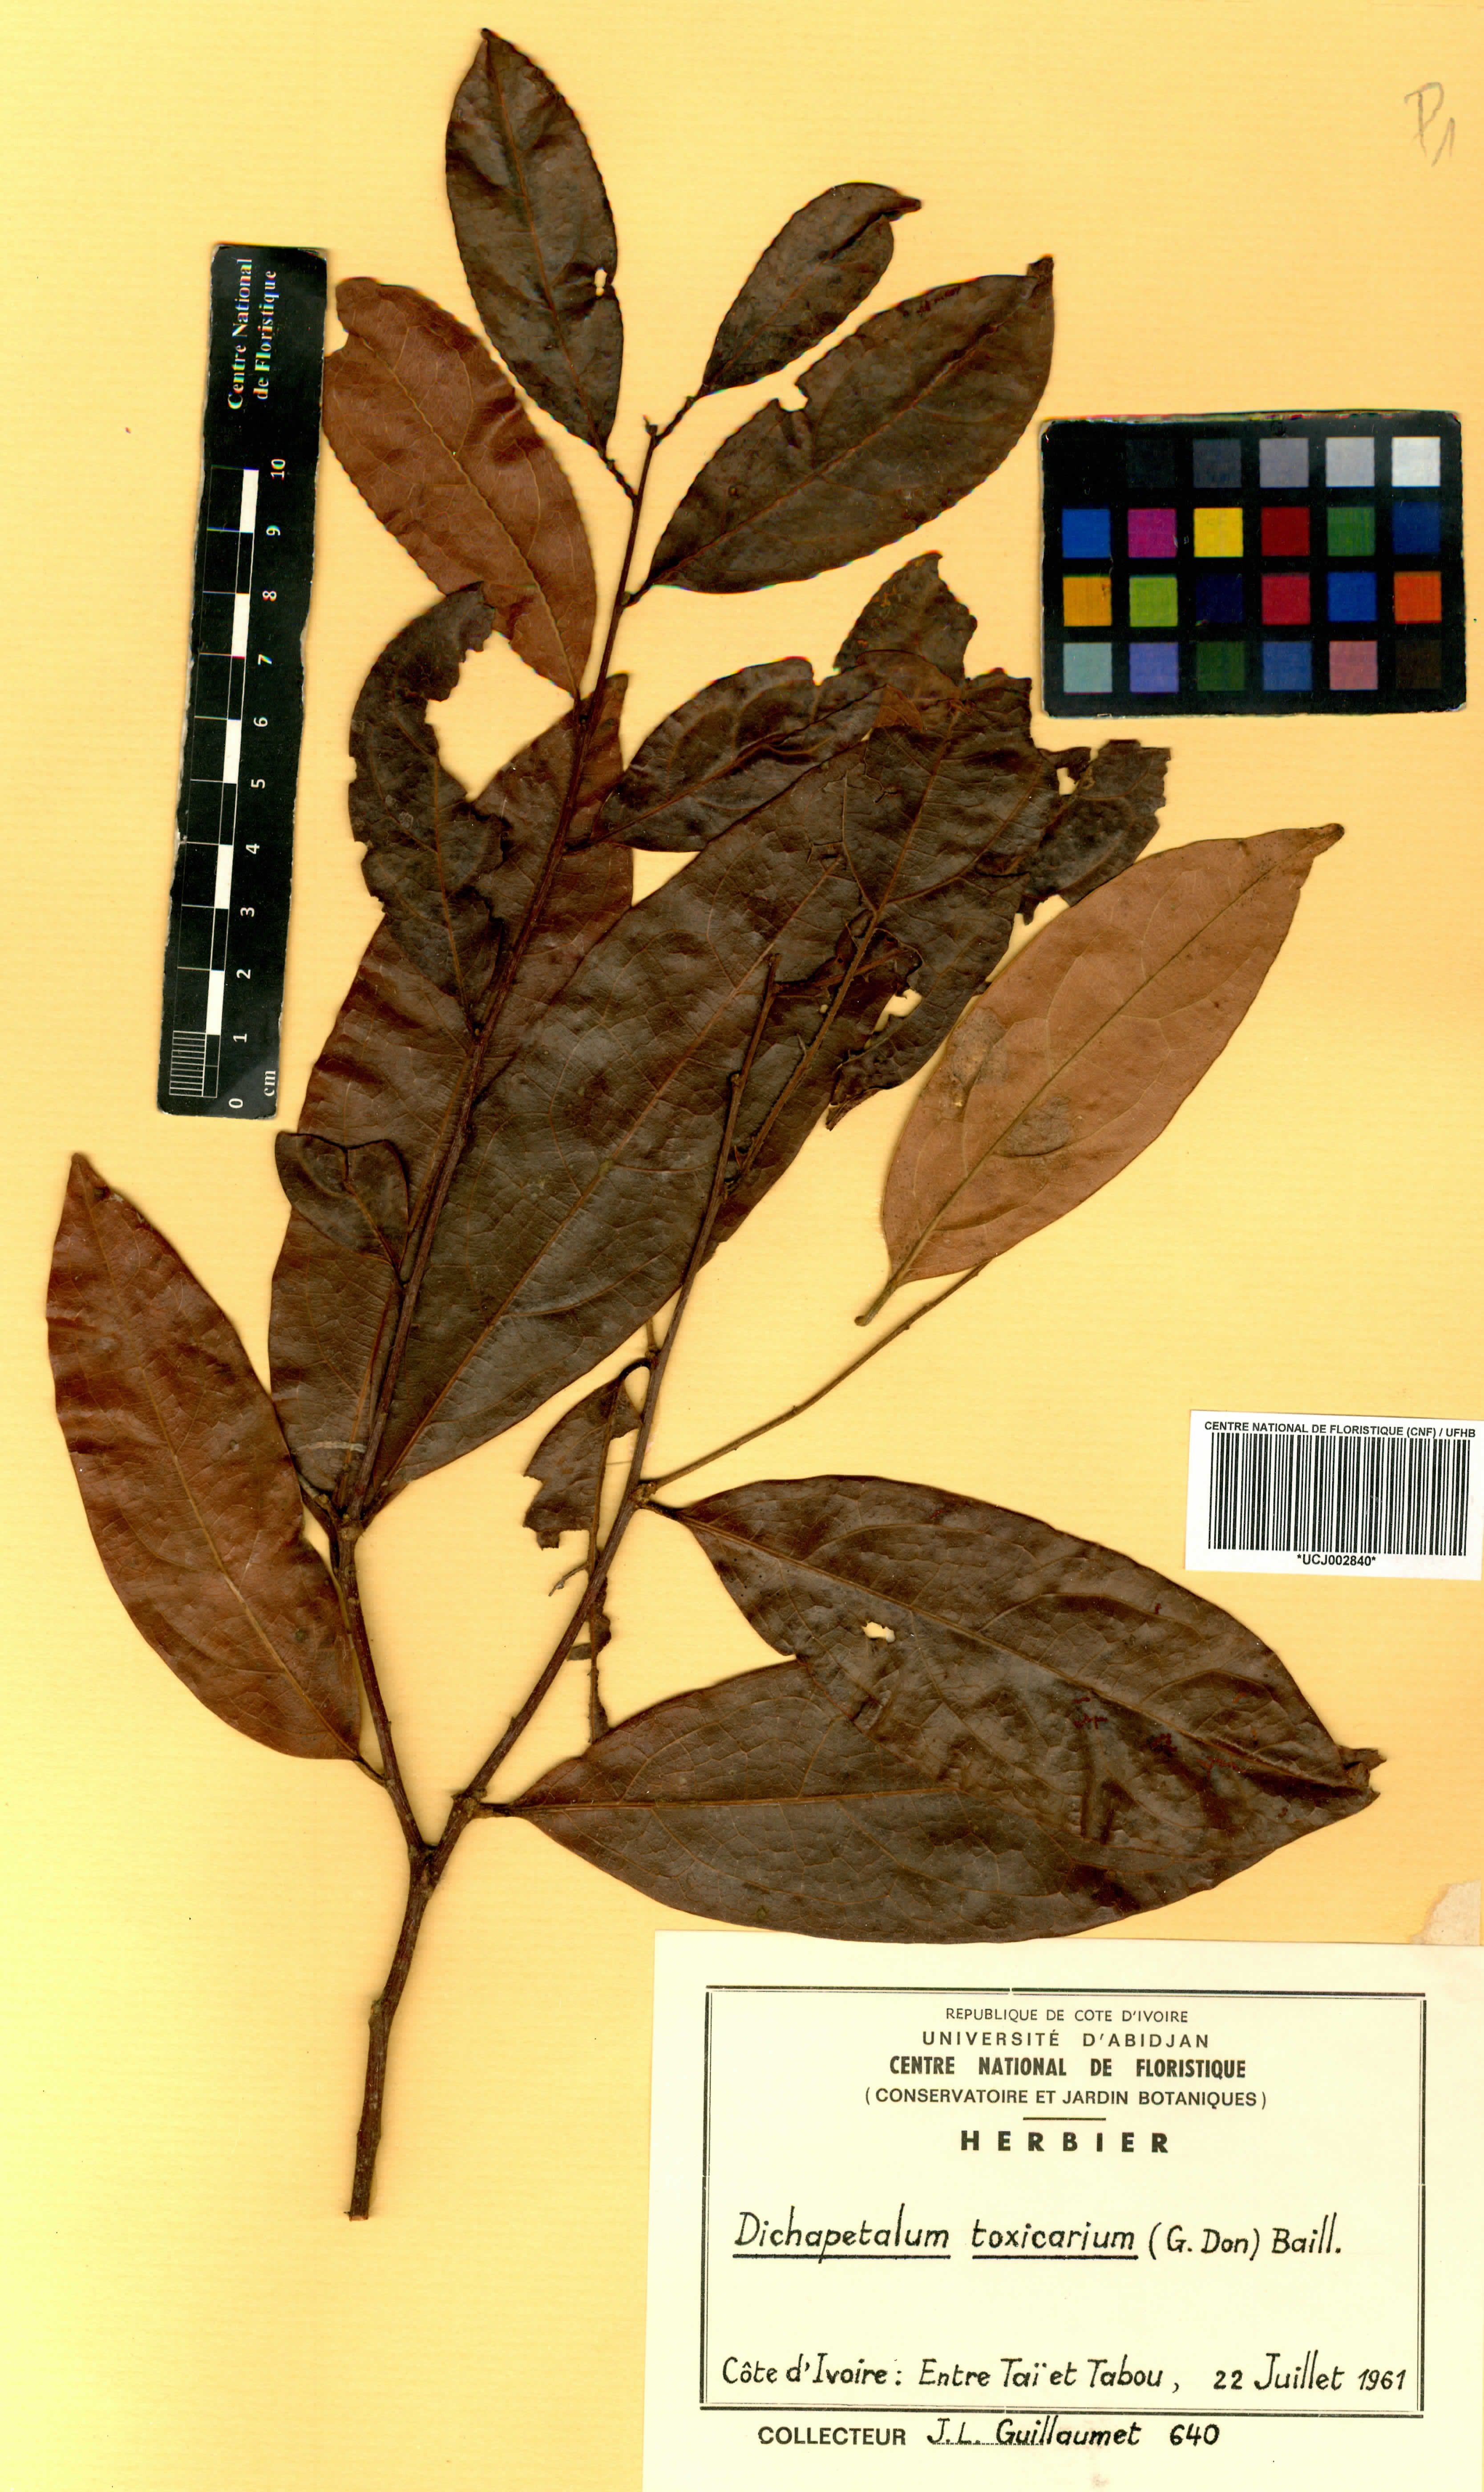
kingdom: Plantae
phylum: Tracheophyta
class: Magnoliopsida
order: Malpighiales
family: Dichapetalaceae
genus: Dichapetalum
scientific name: Dichapetalum toxicarium
